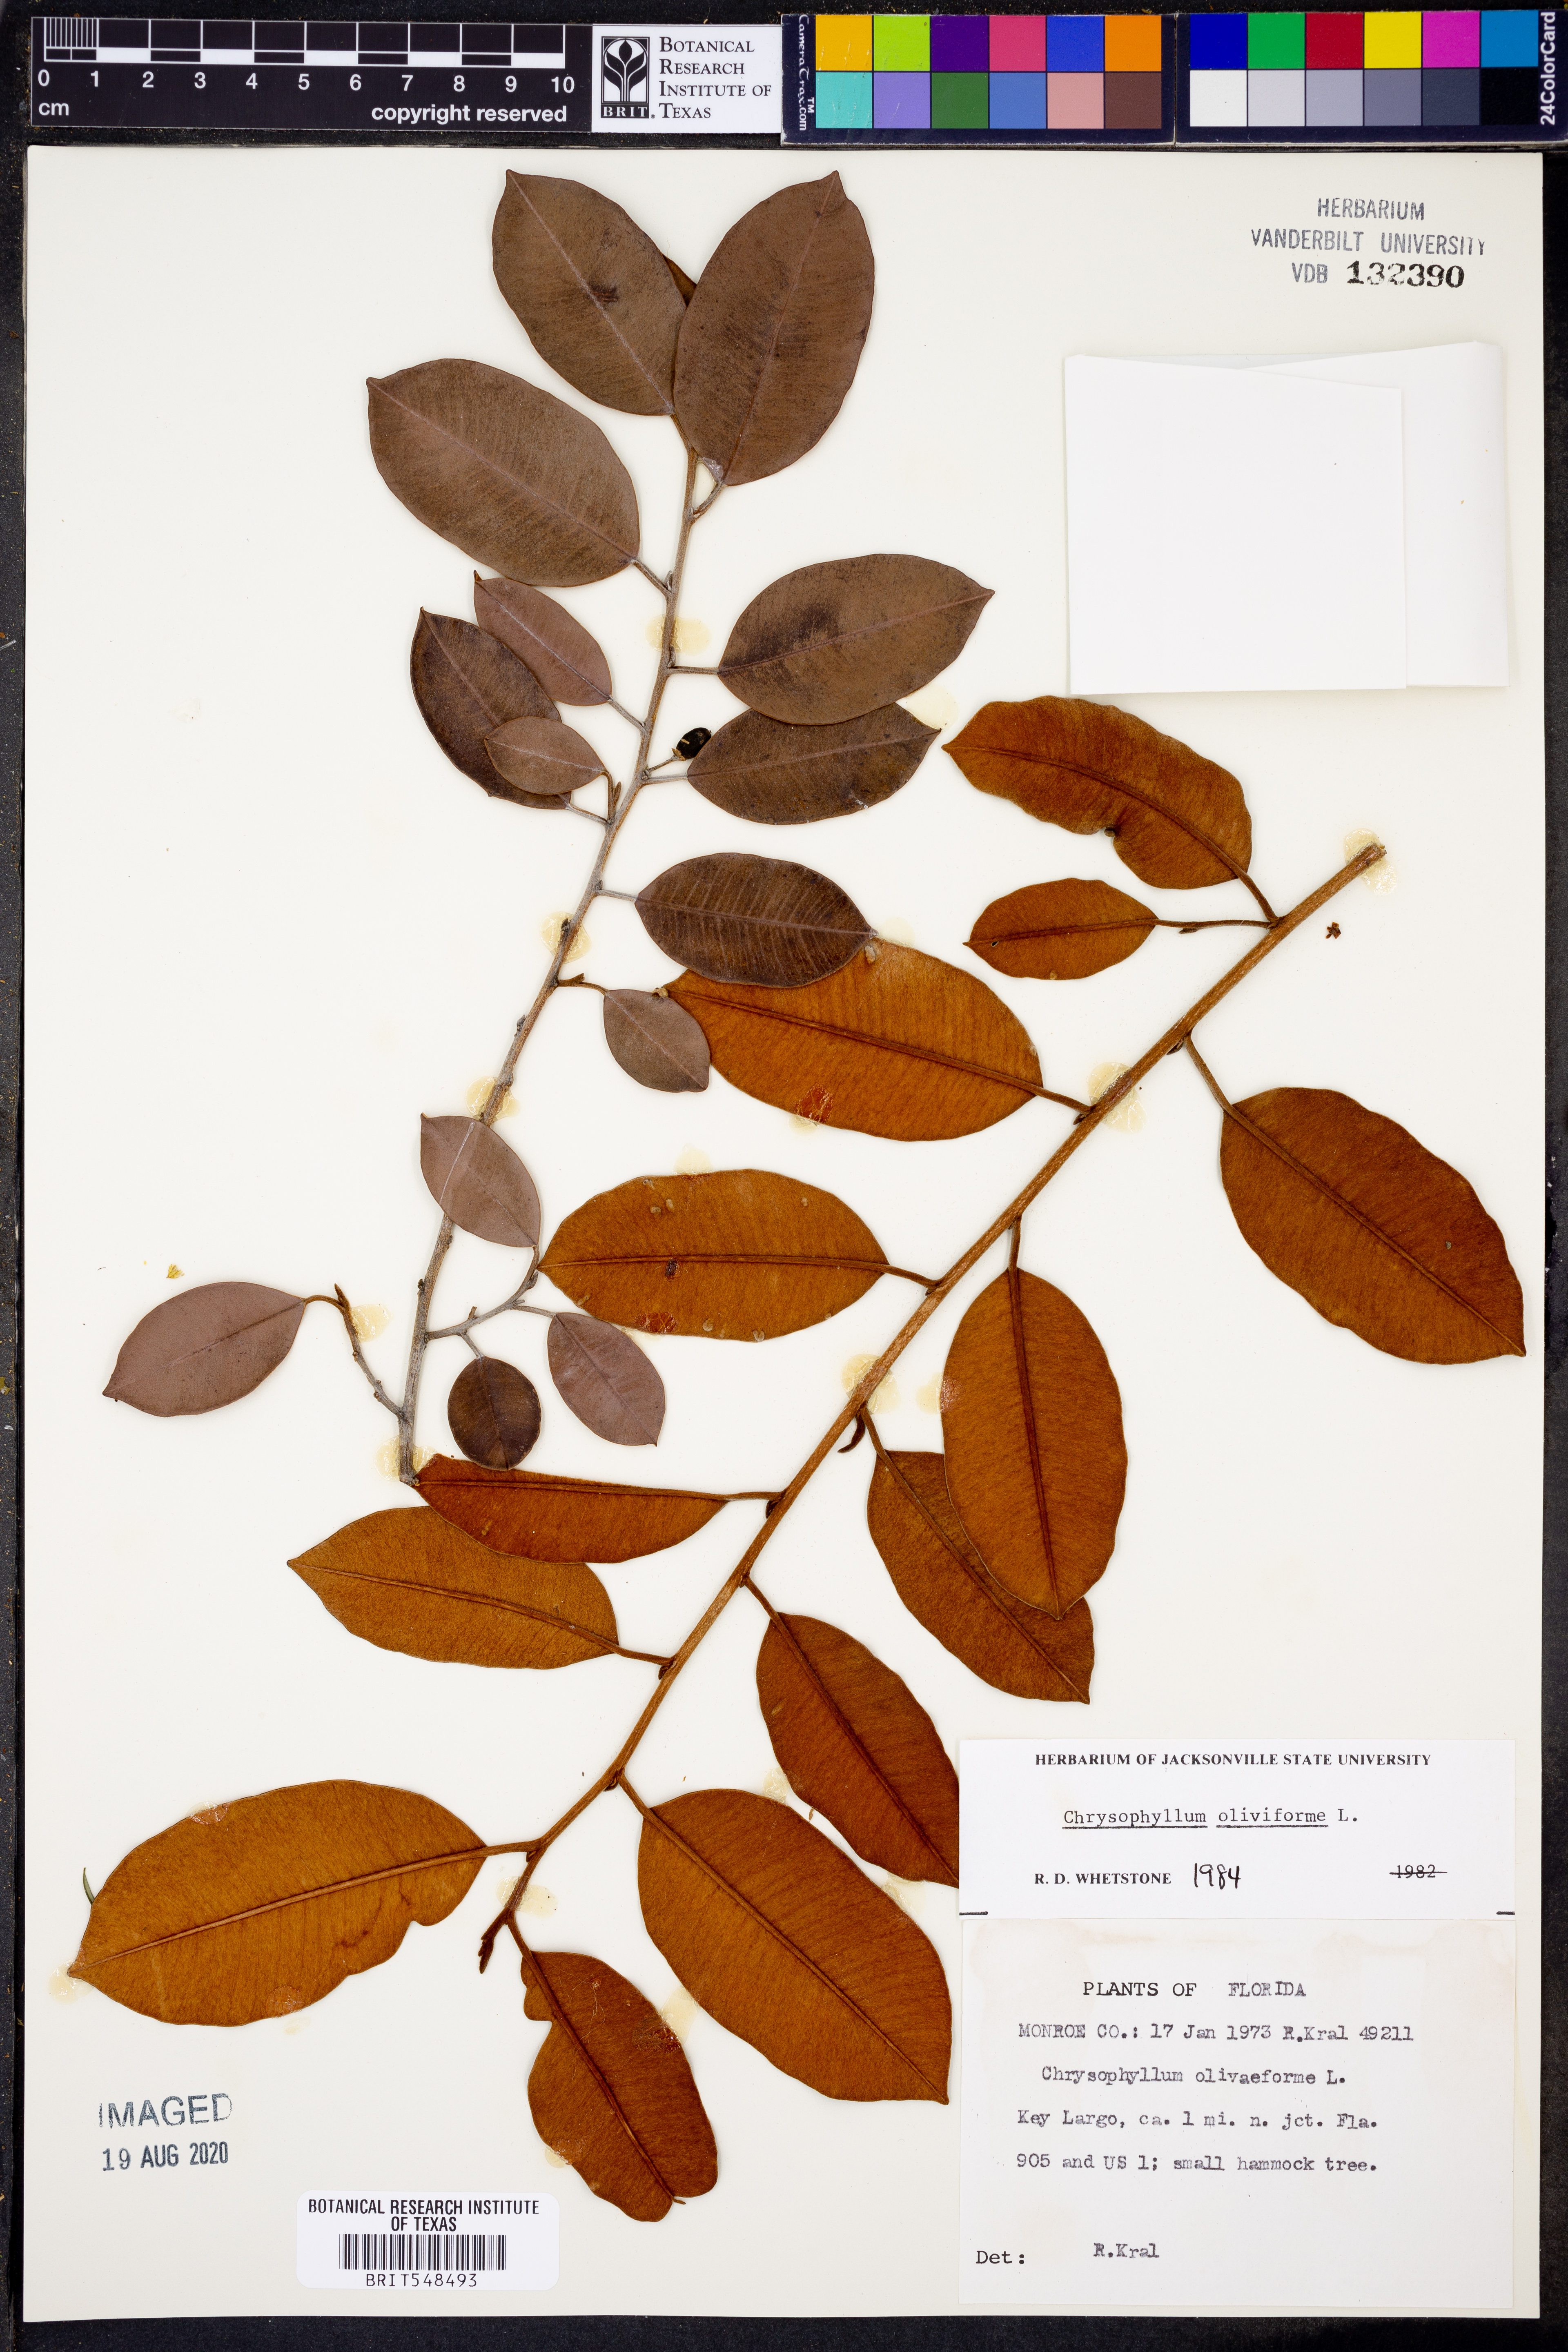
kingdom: Plantae
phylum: Tracheophyta
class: Magnoliopsida
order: Ericales
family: Sapotaceae
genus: Chrysophyllum
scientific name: Chrysophyllum oliviforme
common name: Satinleaf
